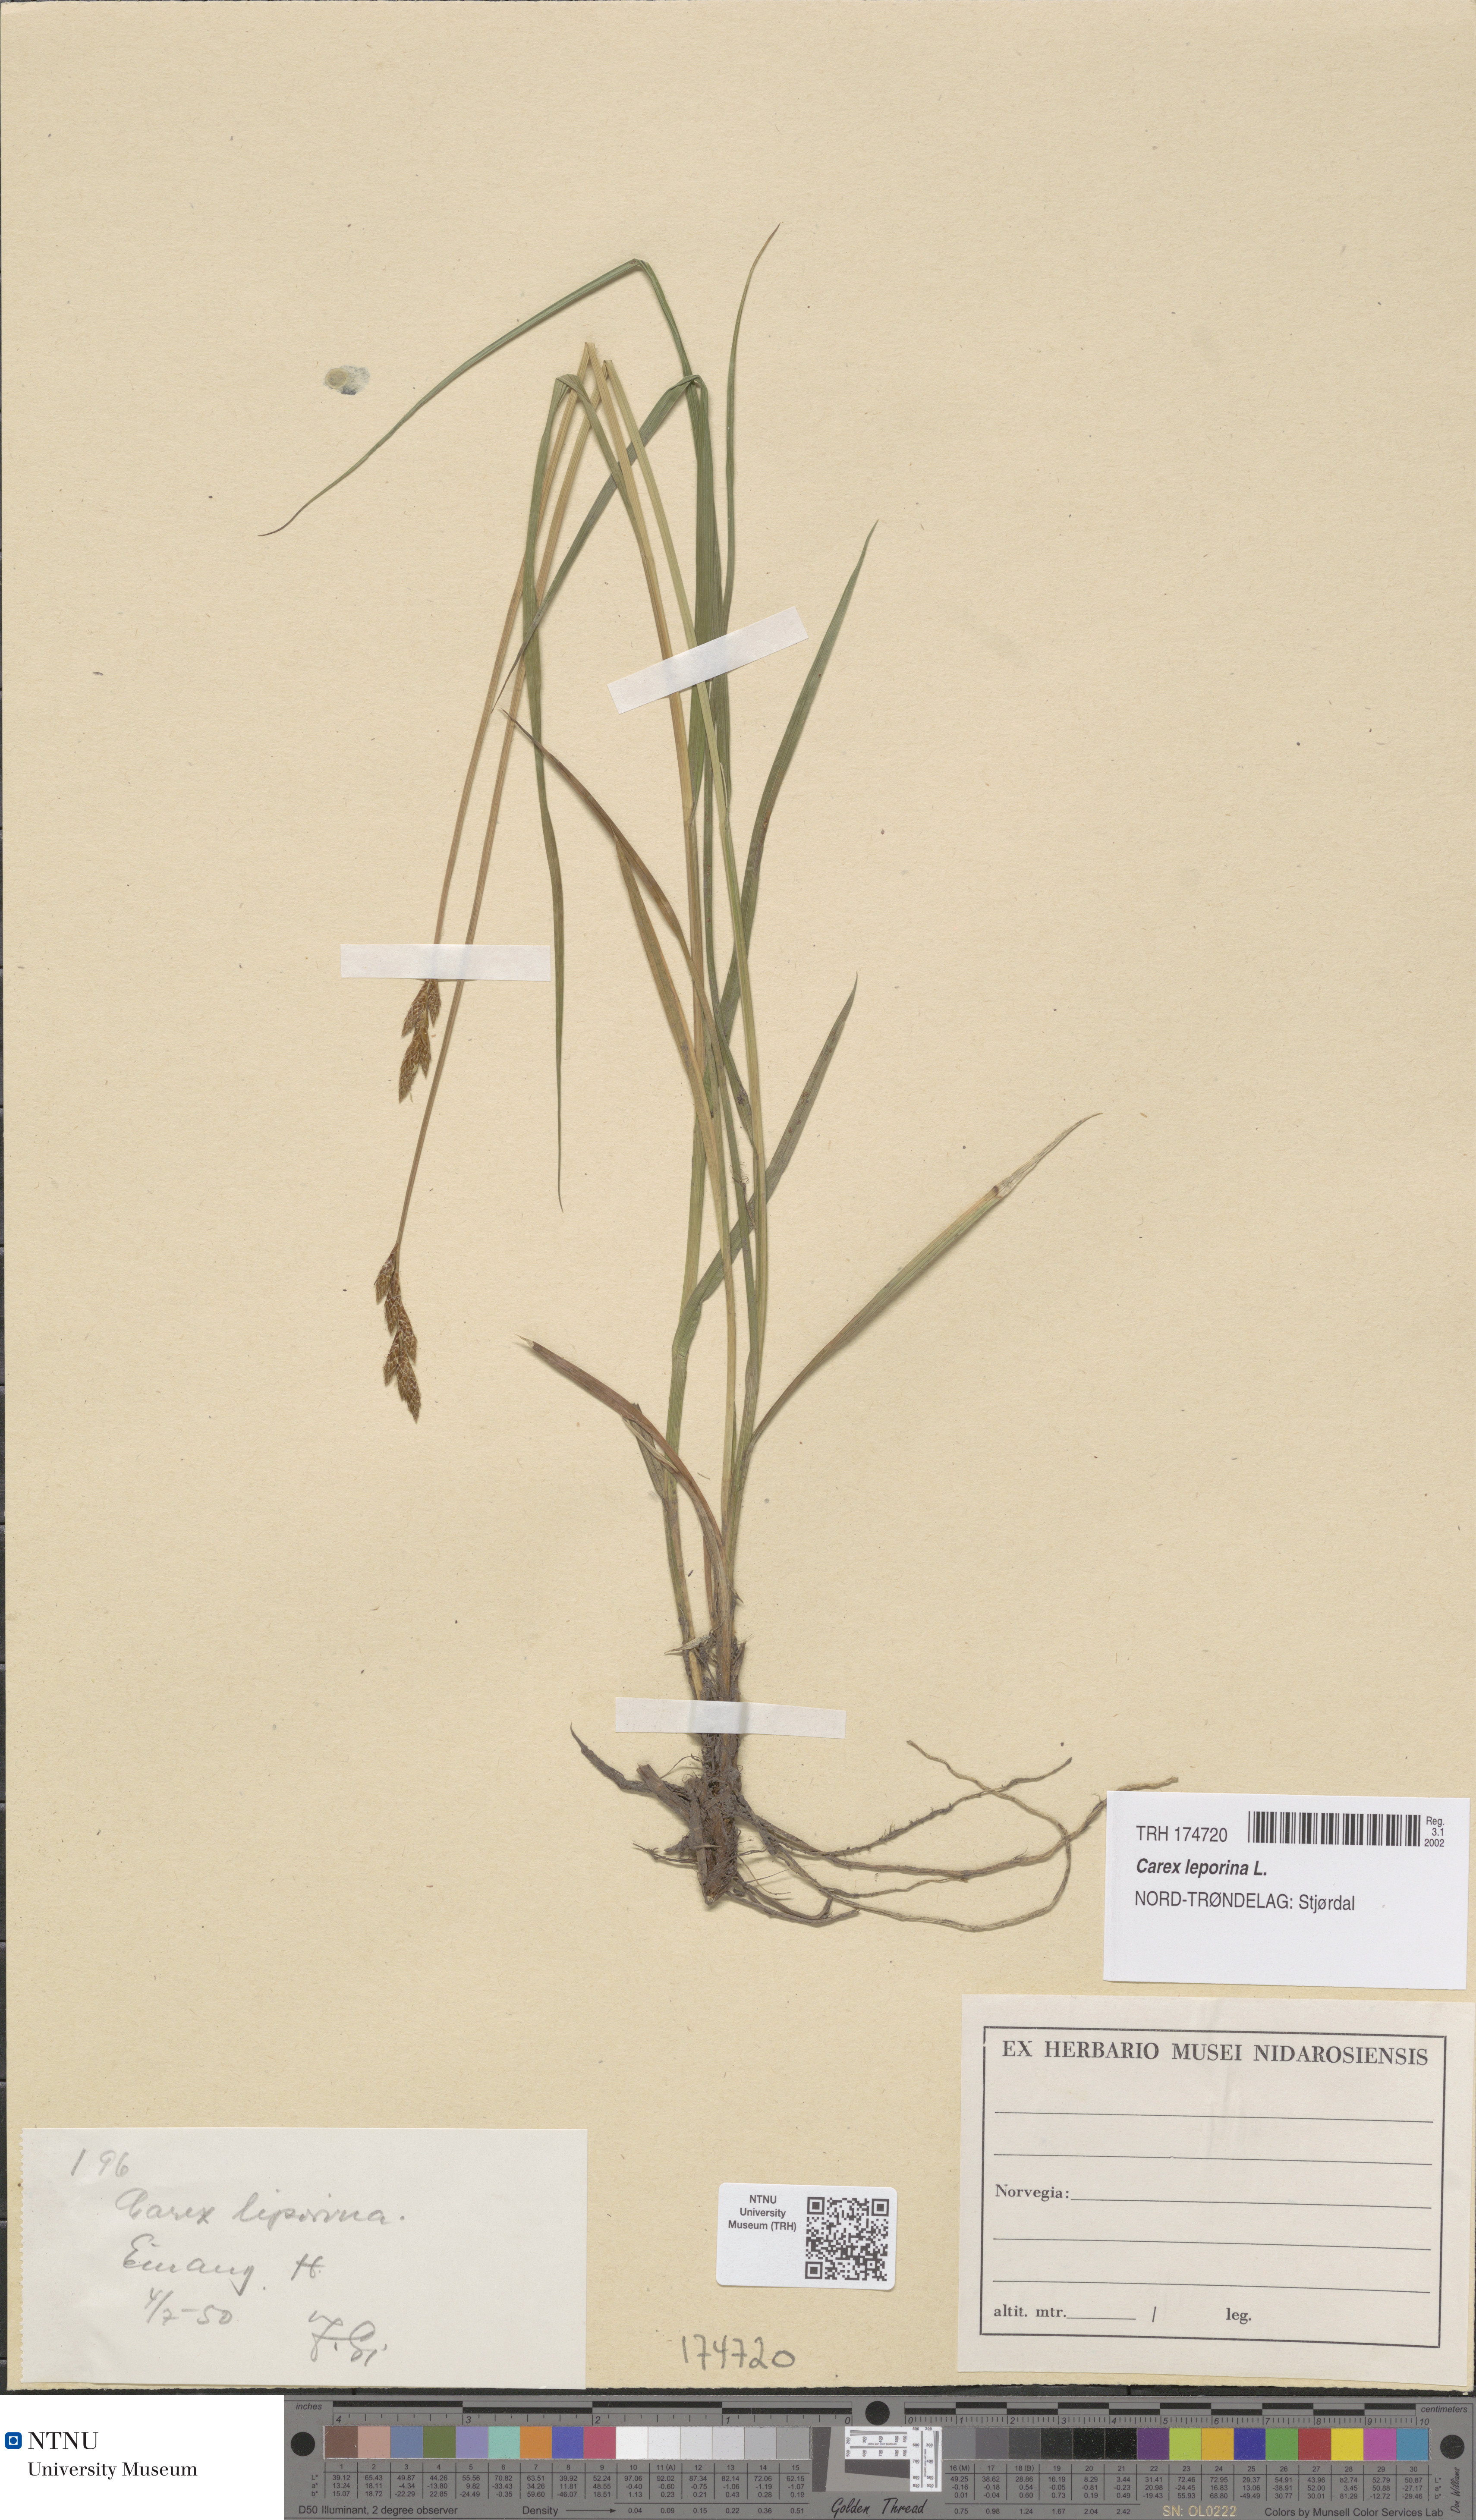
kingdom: Plantae
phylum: Tracheophyta
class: Liliopsida
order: Poales
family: Cyperaceae
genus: Carex
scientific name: Carex leporina
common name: Oval sedge
